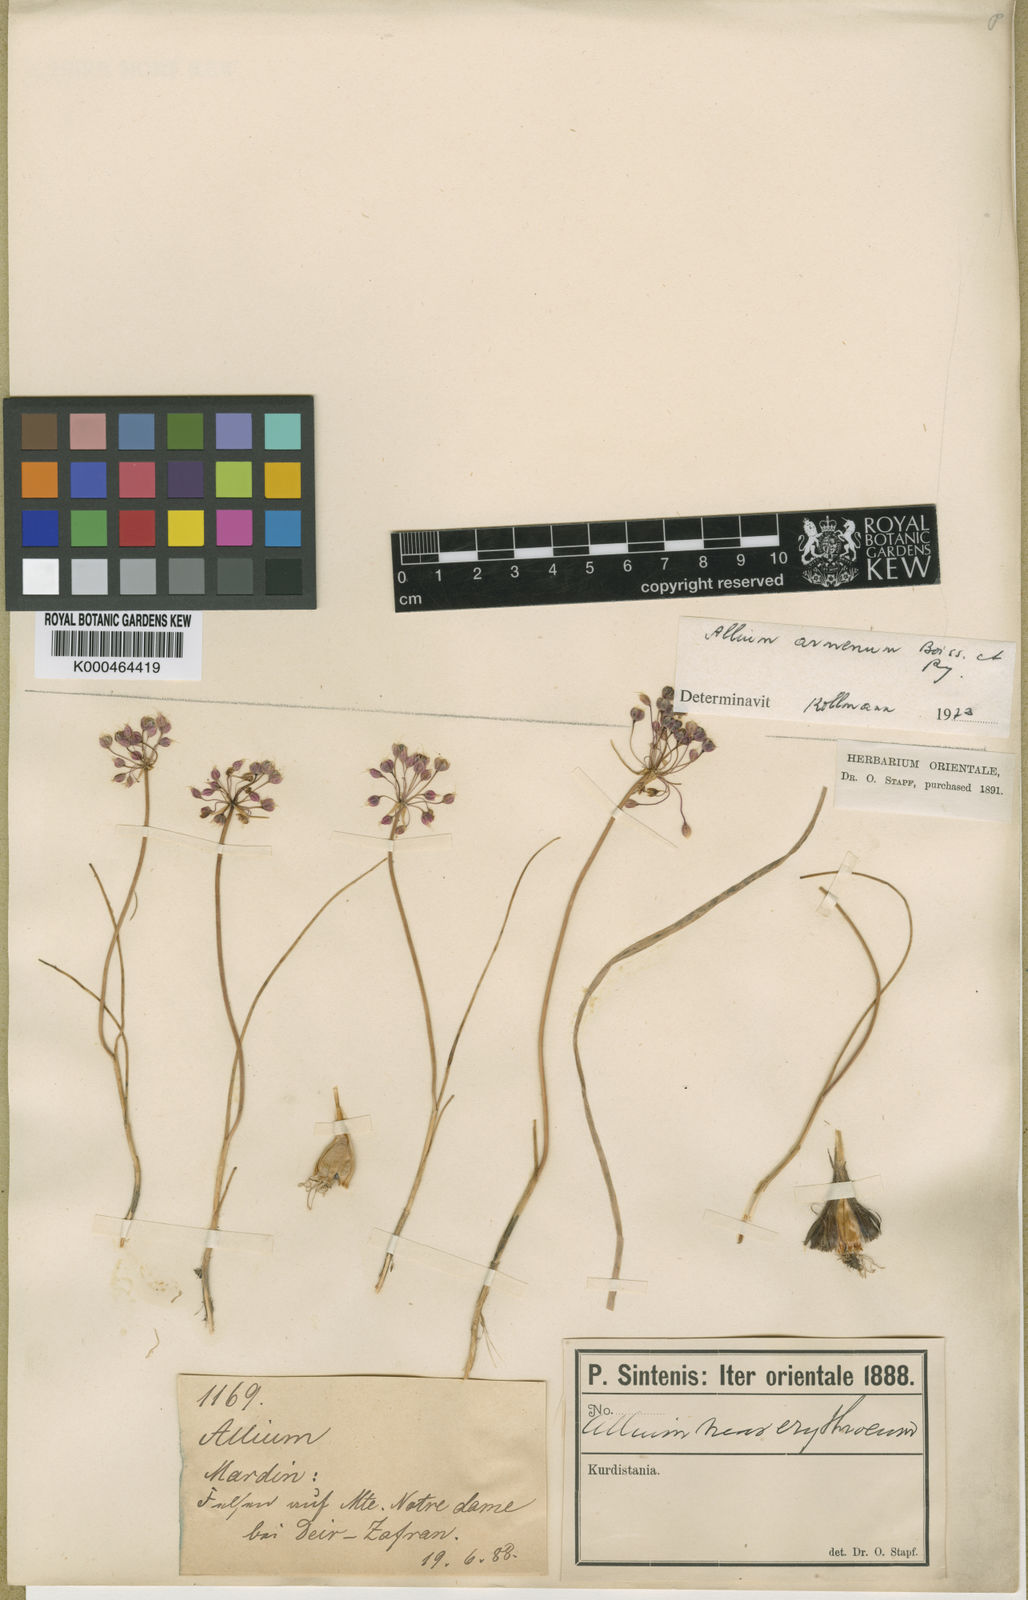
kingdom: Plantae
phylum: Tracheophyta
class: Liliopsida
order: Asparagales
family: Amaryllidaceae
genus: Allium
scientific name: Allium armenum
